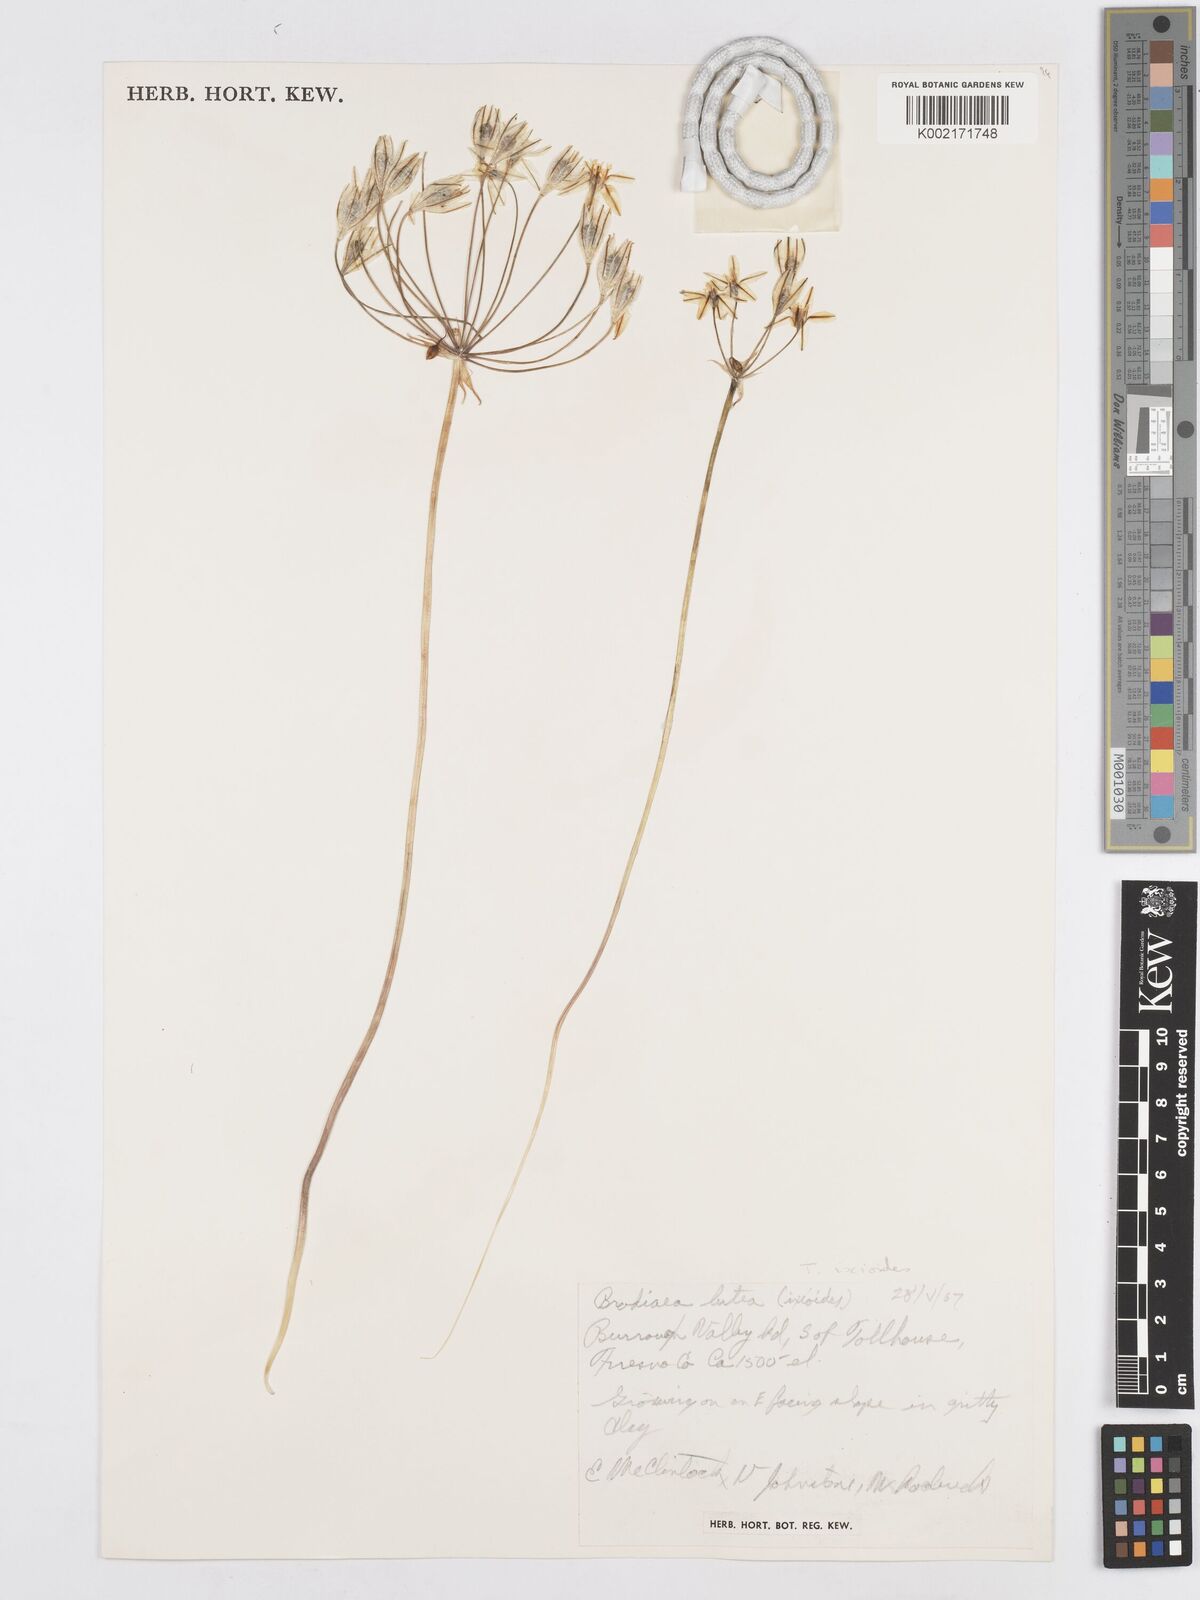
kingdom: Plantae
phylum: Tracheophyta
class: Liliopsida
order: Asparagales
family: Asparagaceae
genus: Triteleia
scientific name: Triteleia ixioides
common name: Yellow-brodiaea
